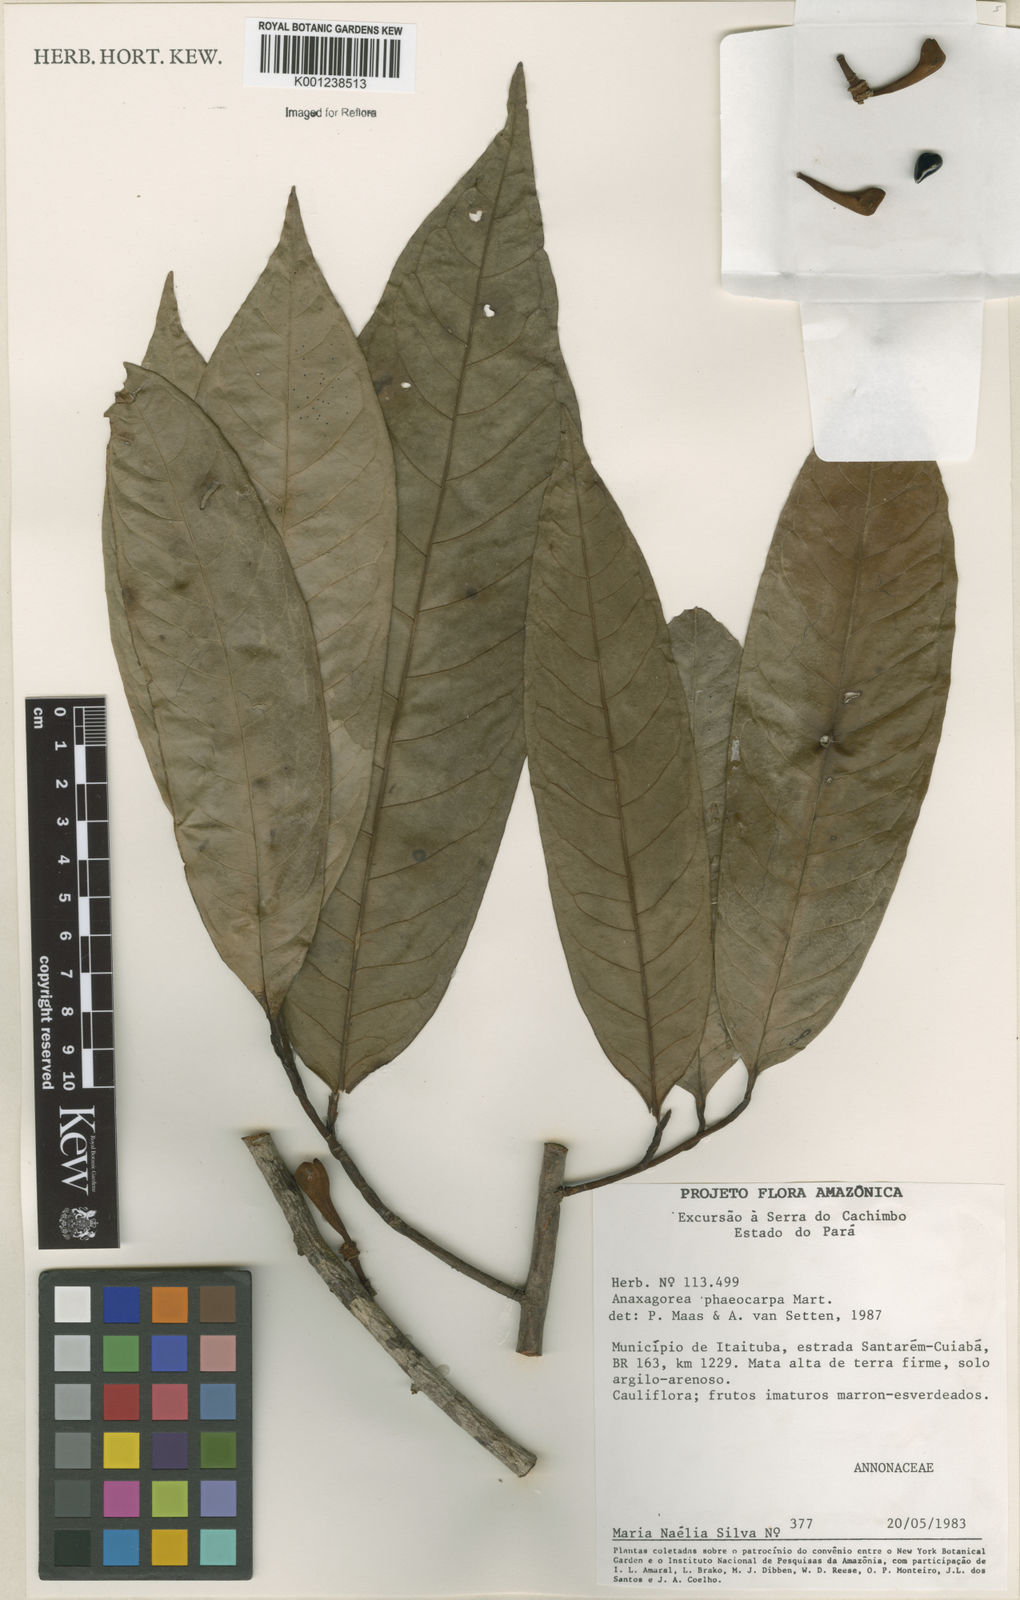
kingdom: Plantae
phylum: Tracheophyta
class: Magnoliopsida
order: Magnoliales
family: Annonaceae
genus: Anaxagorea
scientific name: Anaxagorea phaeocarpa
